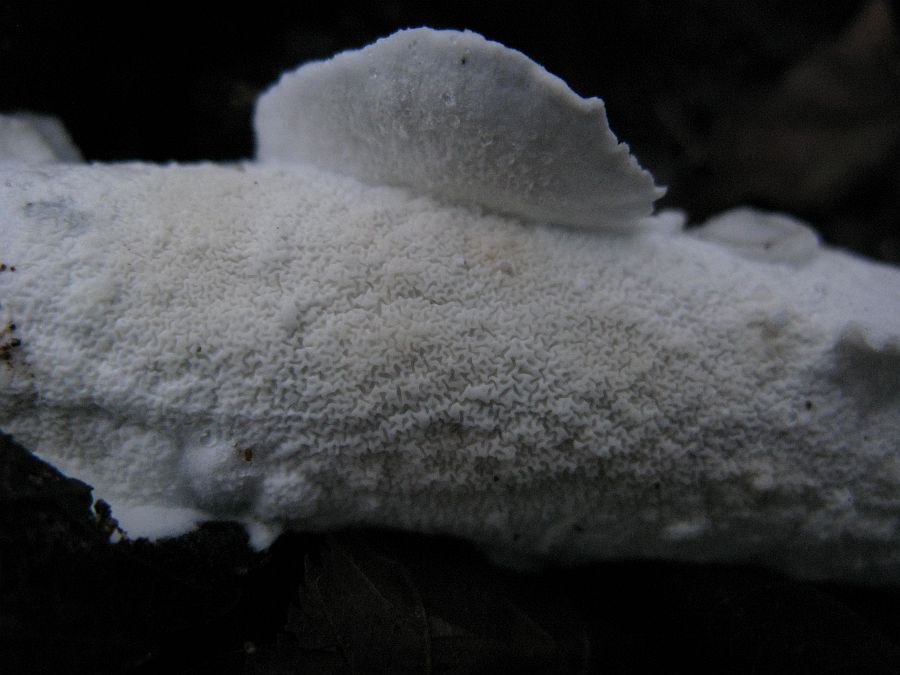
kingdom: Fungi
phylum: Basidiomycota
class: Agaricomycetes
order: Polyporales
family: Irpicaceae
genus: Byssomerulius
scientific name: Byssomerulius corium
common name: læder-åresvamp
